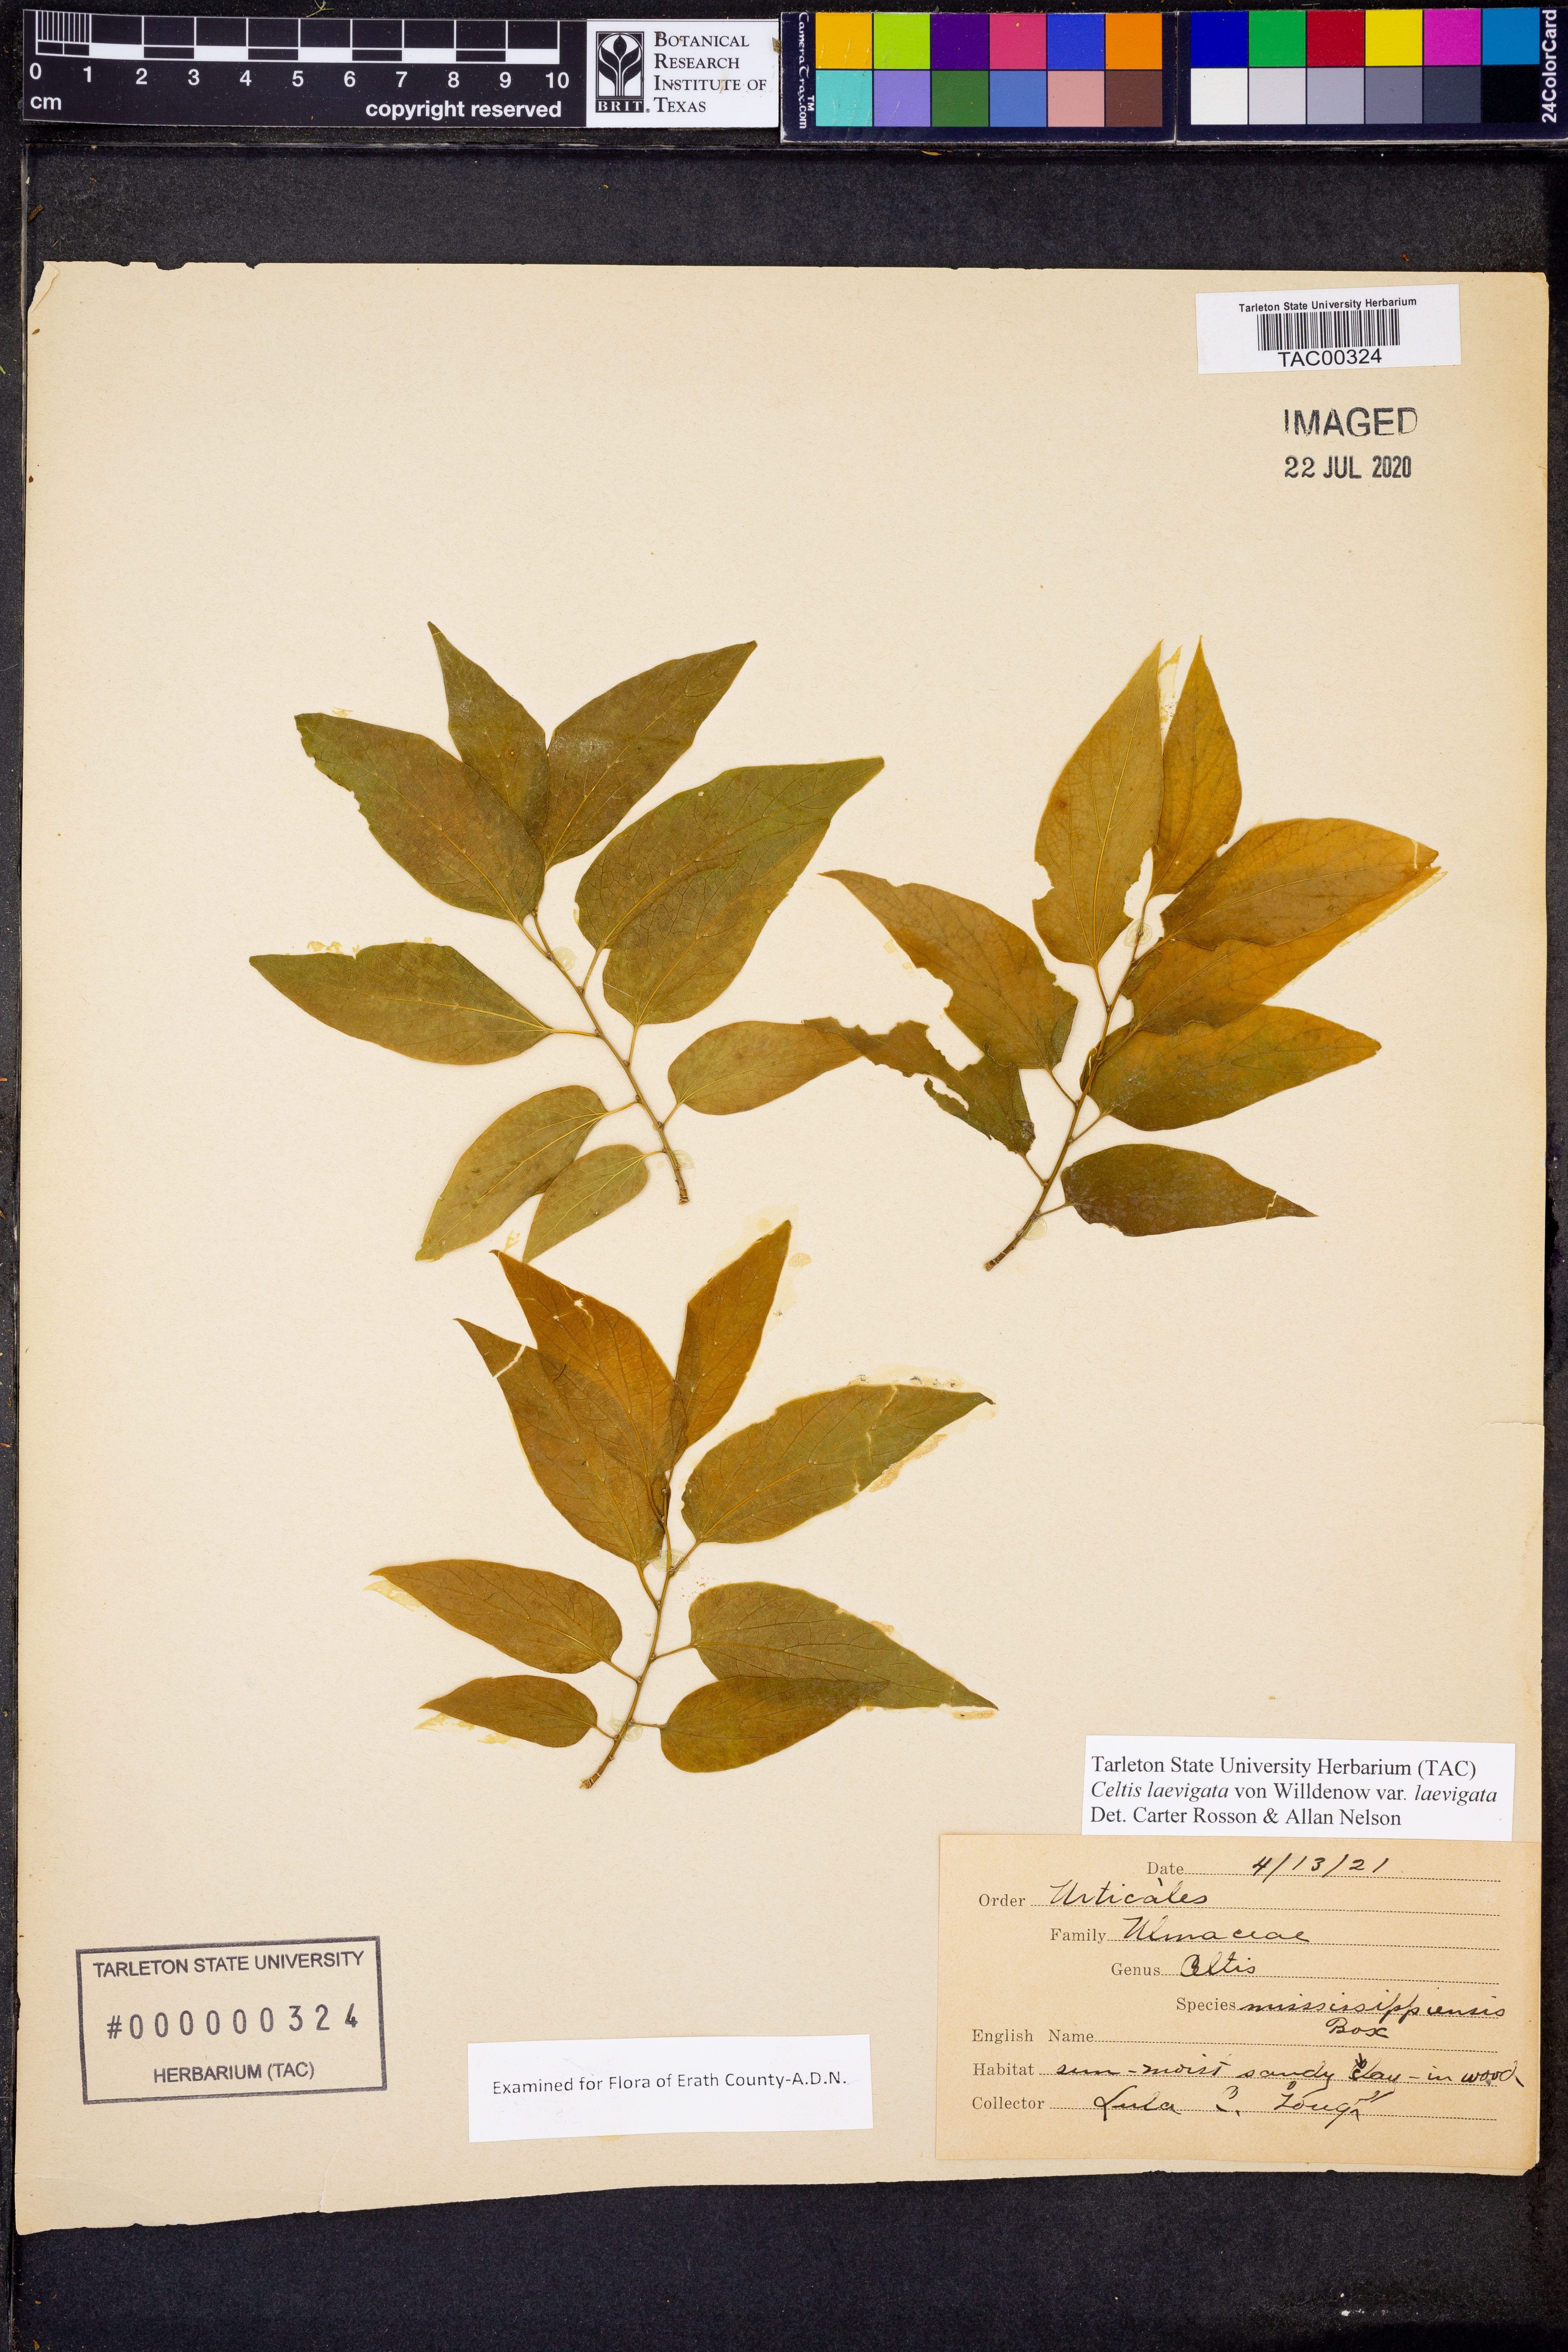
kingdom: Plantae
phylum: Tracheophyta
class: Magnoliopsida
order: Rosales
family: Cannabaceae
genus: Celtis
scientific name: Celtis laevigata
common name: Sugarberry
